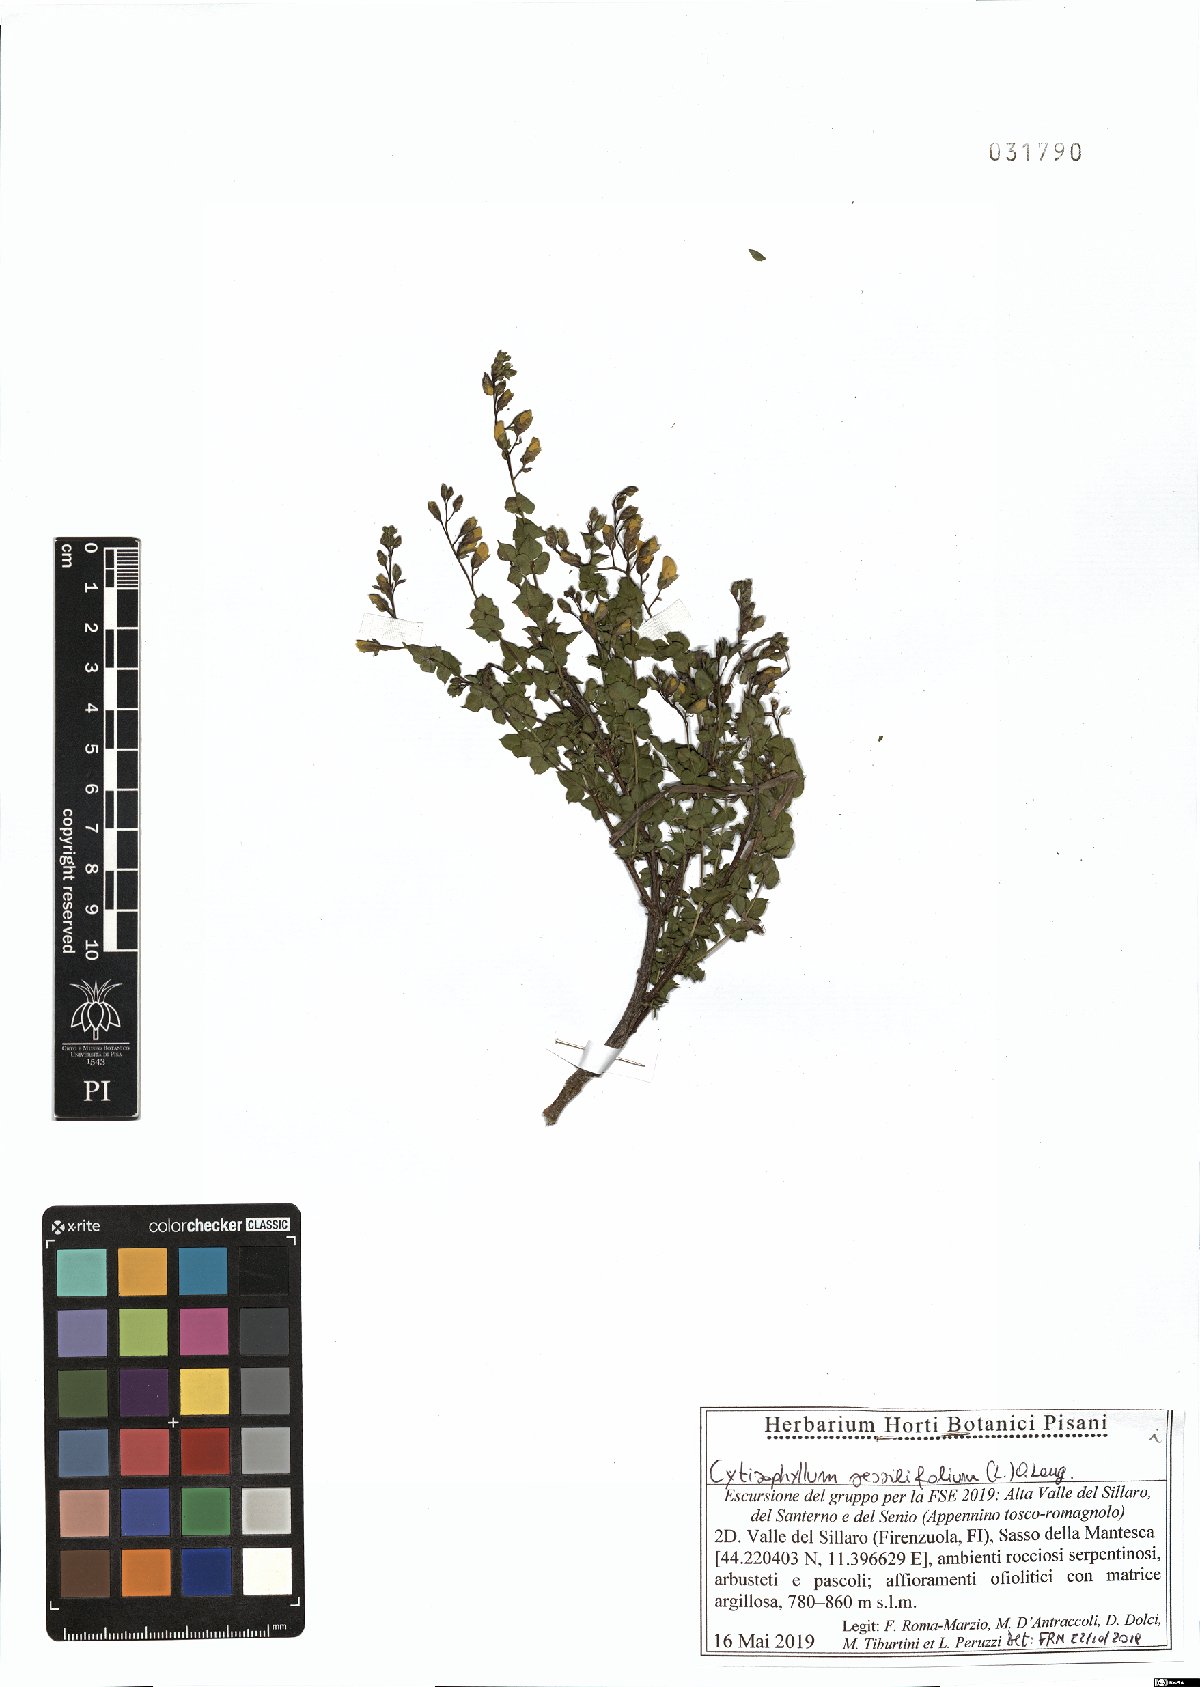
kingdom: Plantae
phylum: Tracheophyta
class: Magnoliopsida
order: Fabales
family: Fabaceae
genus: Cytisophyllum
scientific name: Cytisophyllum sessilifolium
